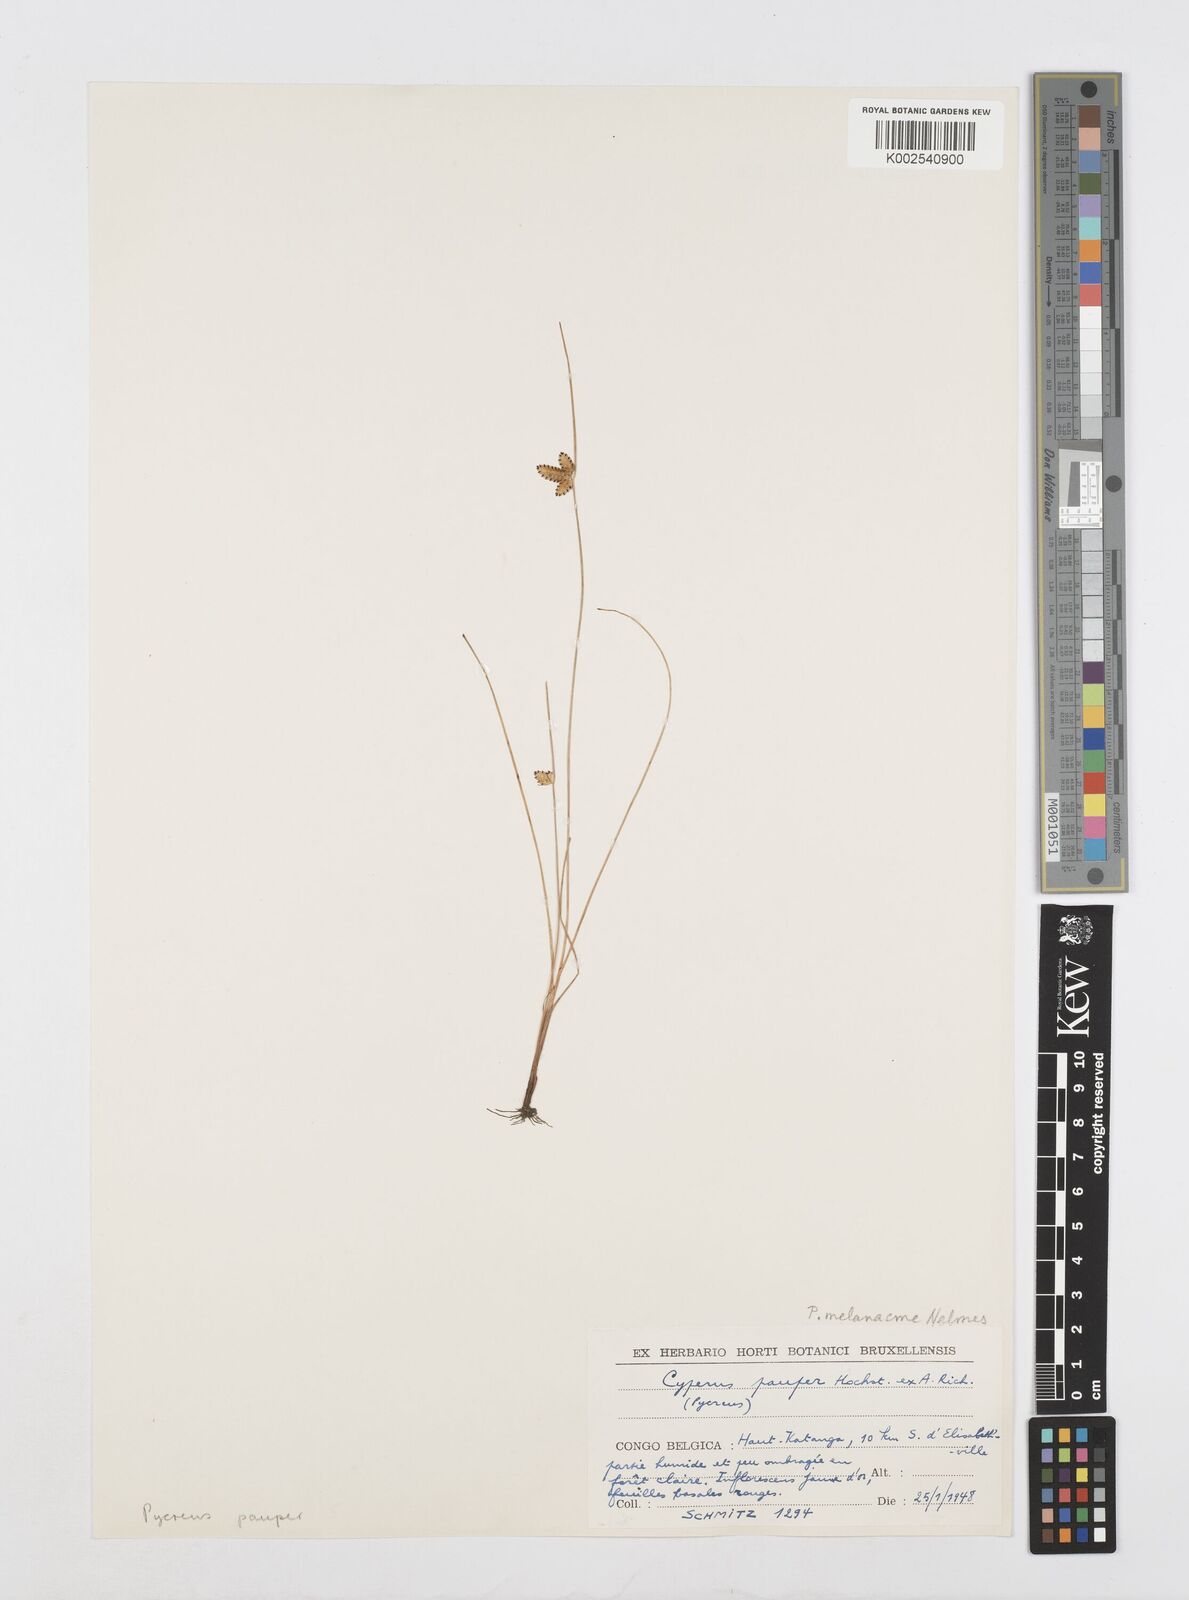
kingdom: Plantae
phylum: Tracheophyta
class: Liliopsida
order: Poales
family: Cyperaceae
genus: Cyperus
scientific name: Cyperus melanacme
